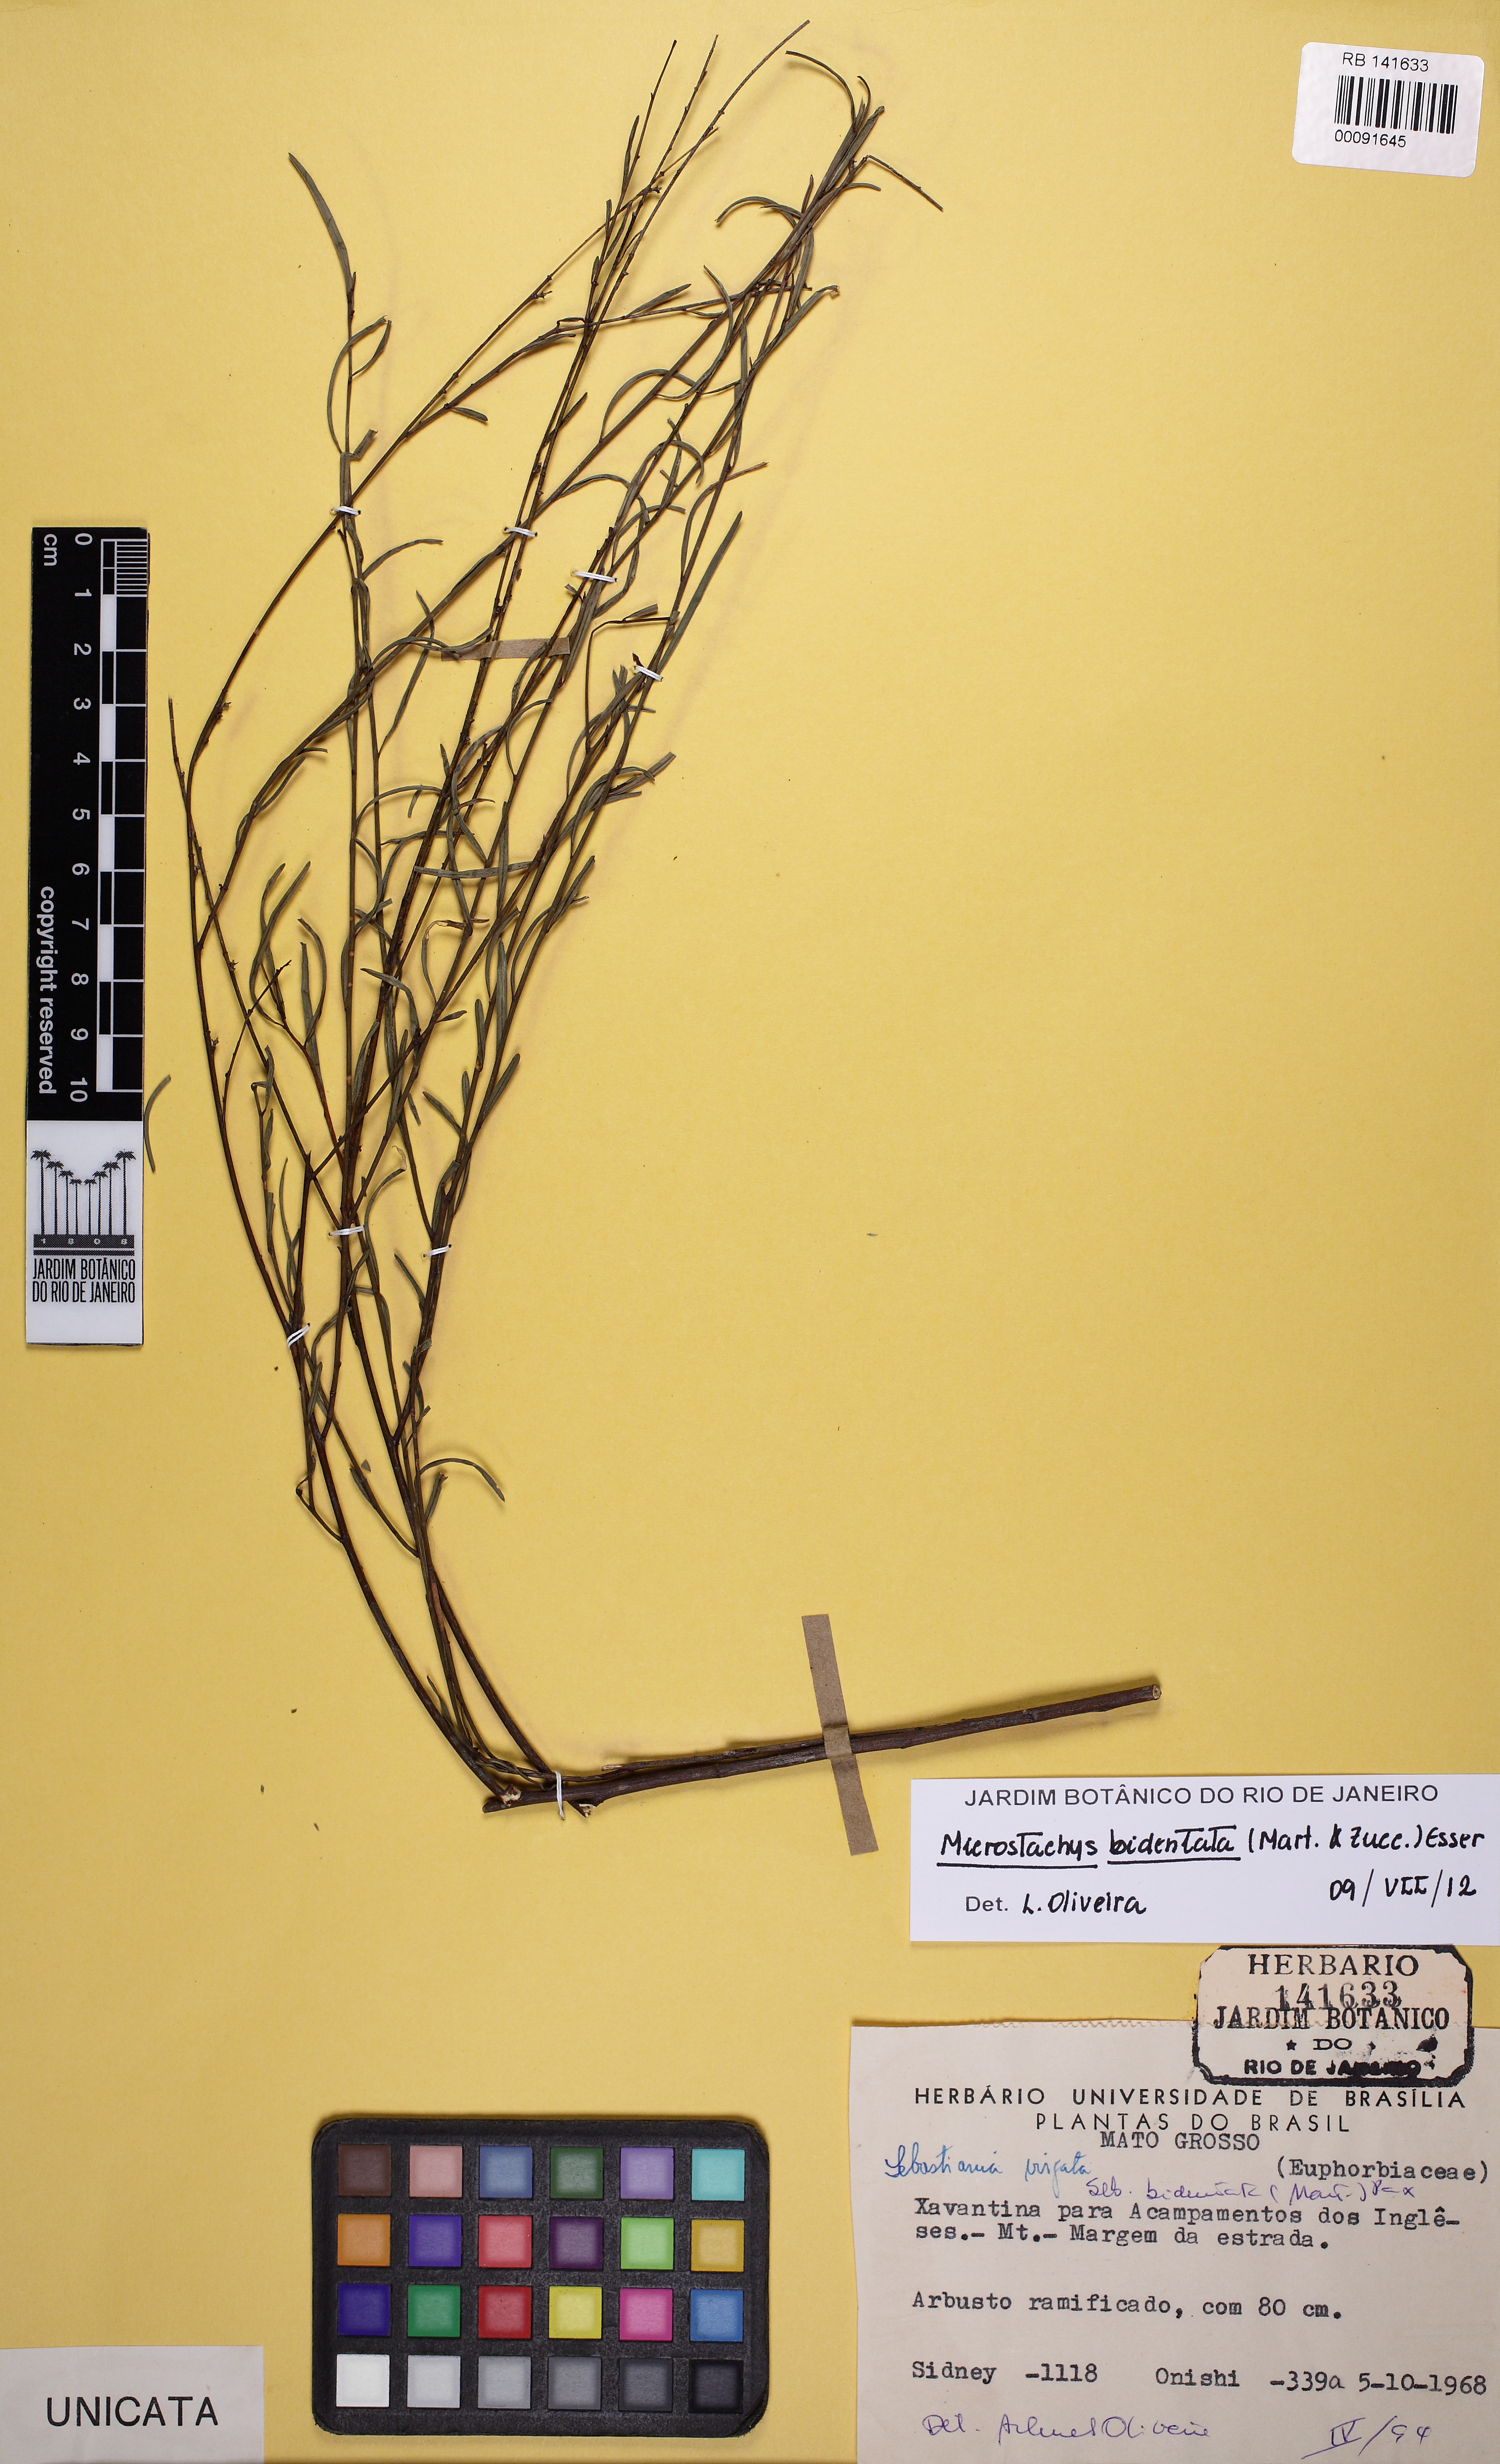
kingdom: Plantae
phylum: Tracheophyta
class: Magnoliopsida
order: Malpighiales
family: Euphorbiaceae
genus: Microstachys
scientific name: Microstachys bidentata
